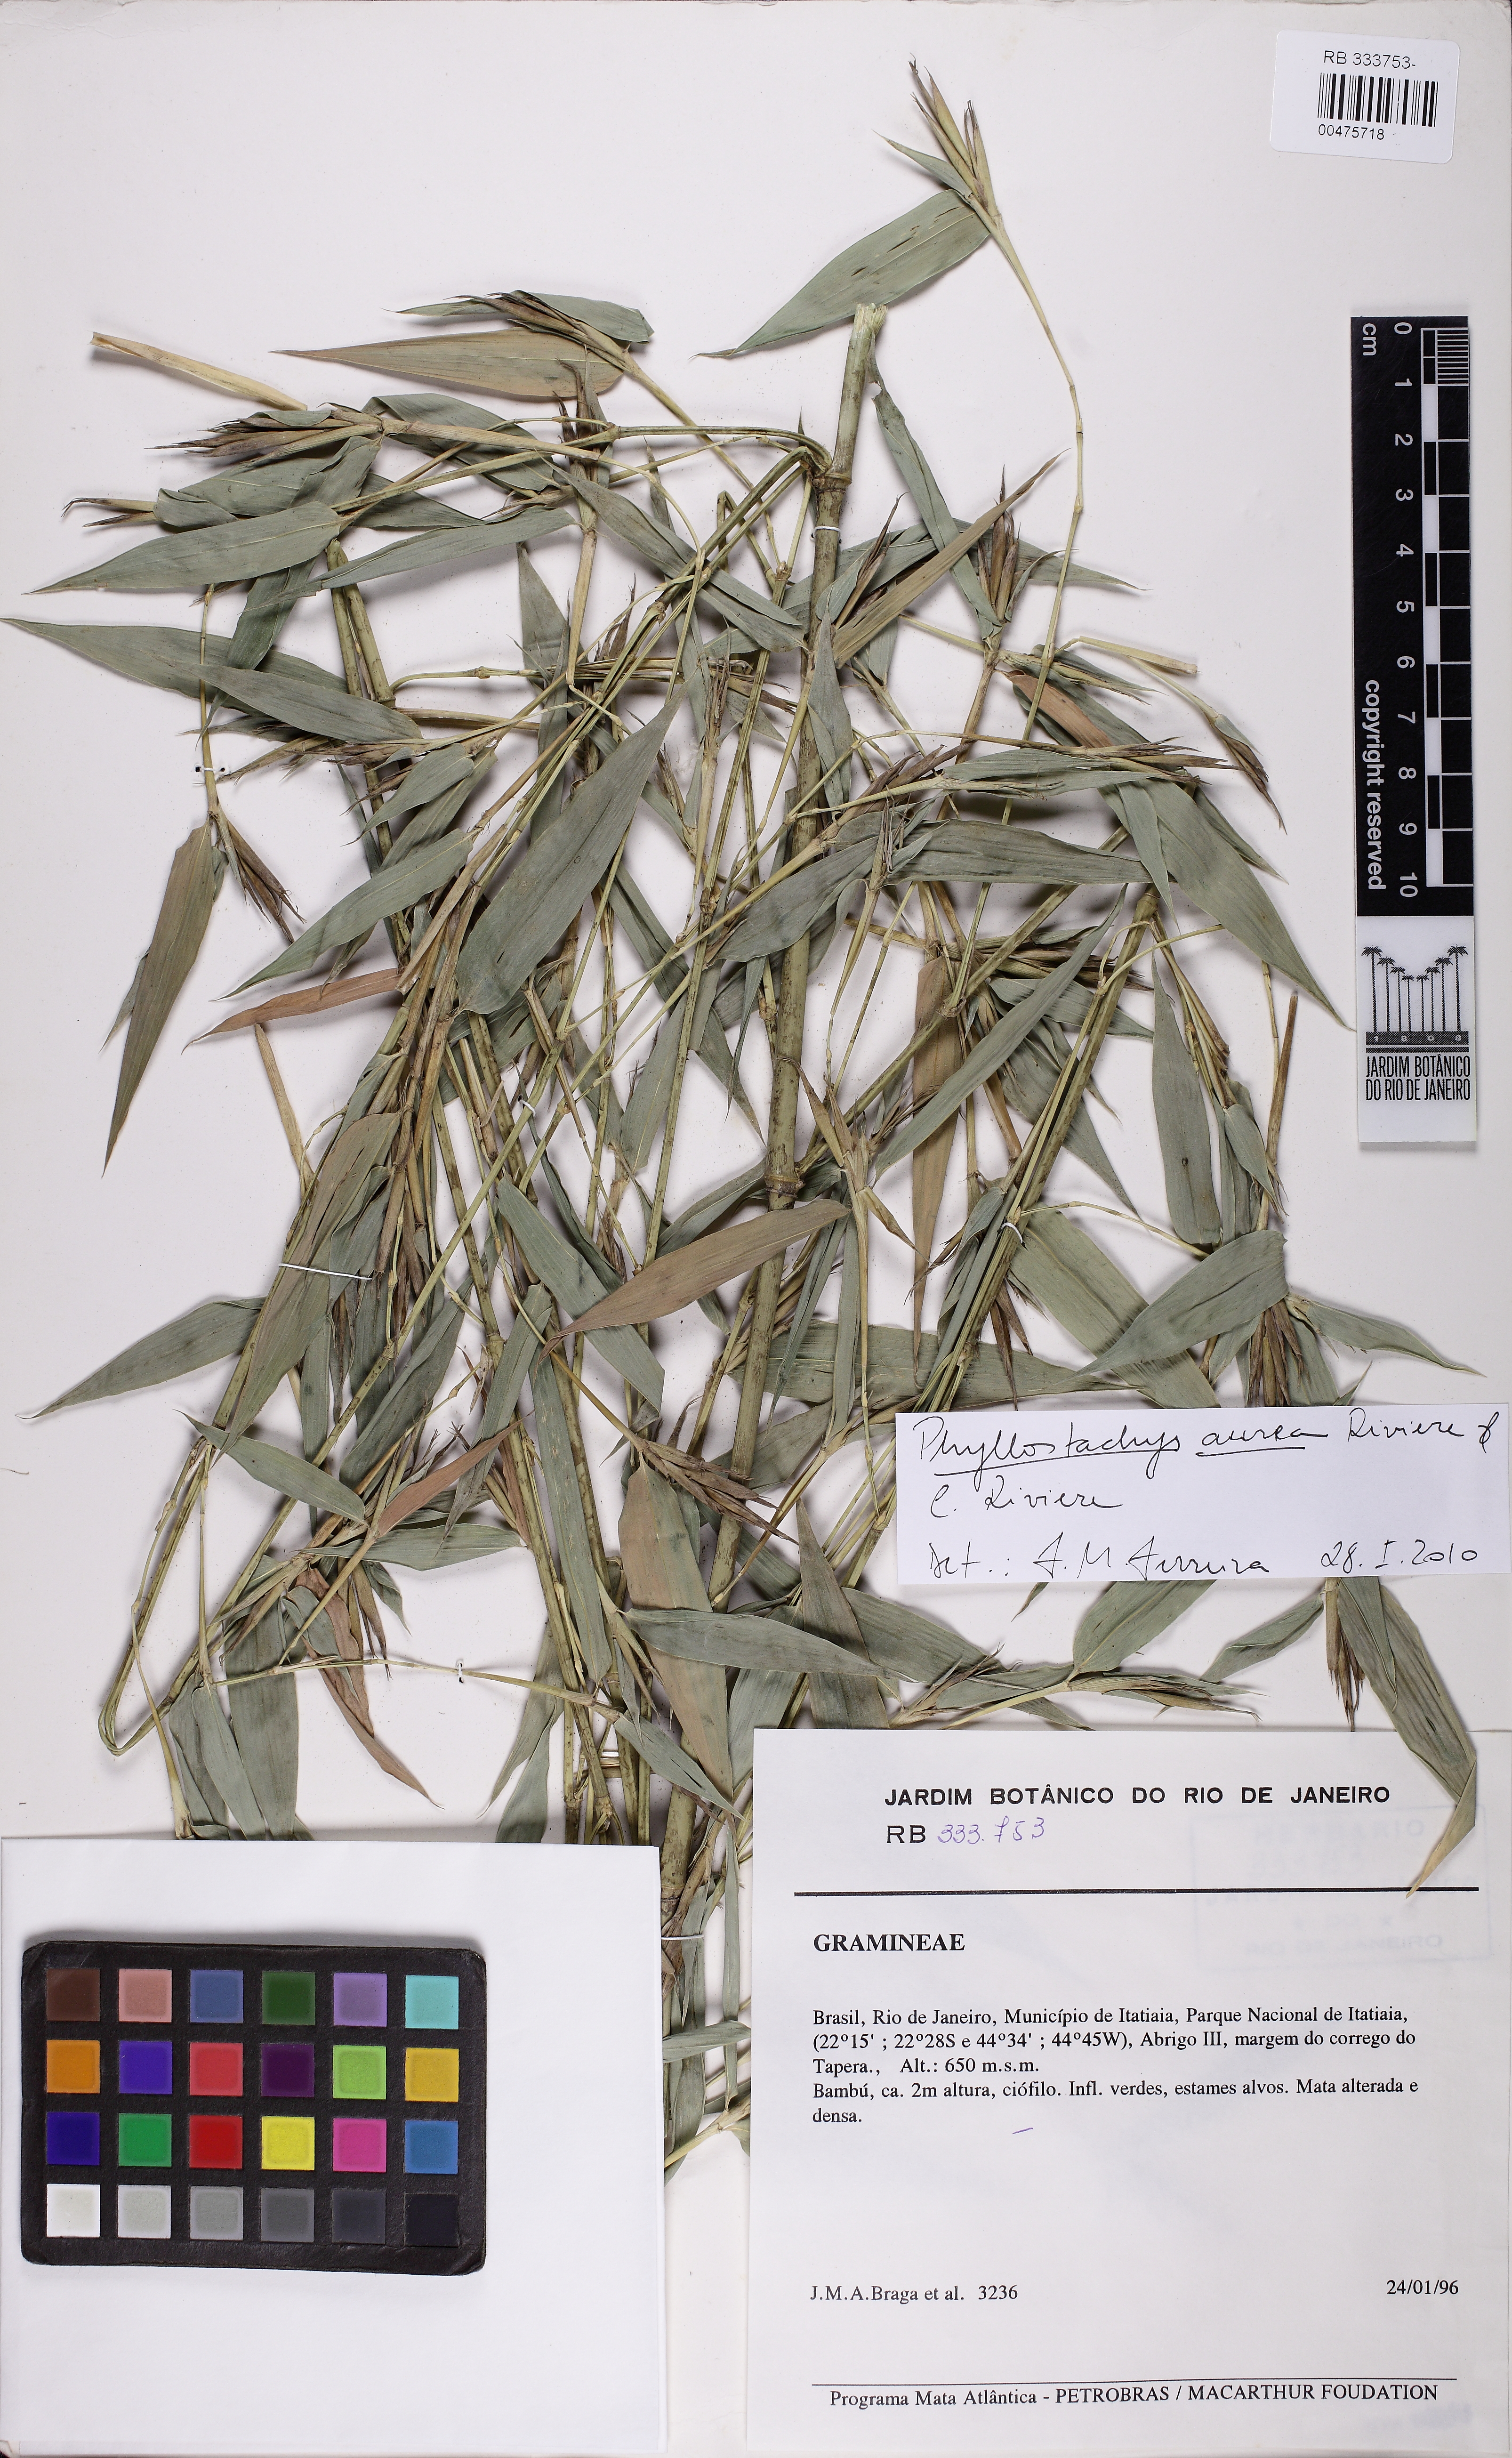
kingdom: Plantae
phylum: Tracheophyta
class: Liliopsida
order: Poales
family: Poaceae
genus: Phyllostachys
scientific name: Phyllostachys aurea
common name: Golden bamboo
